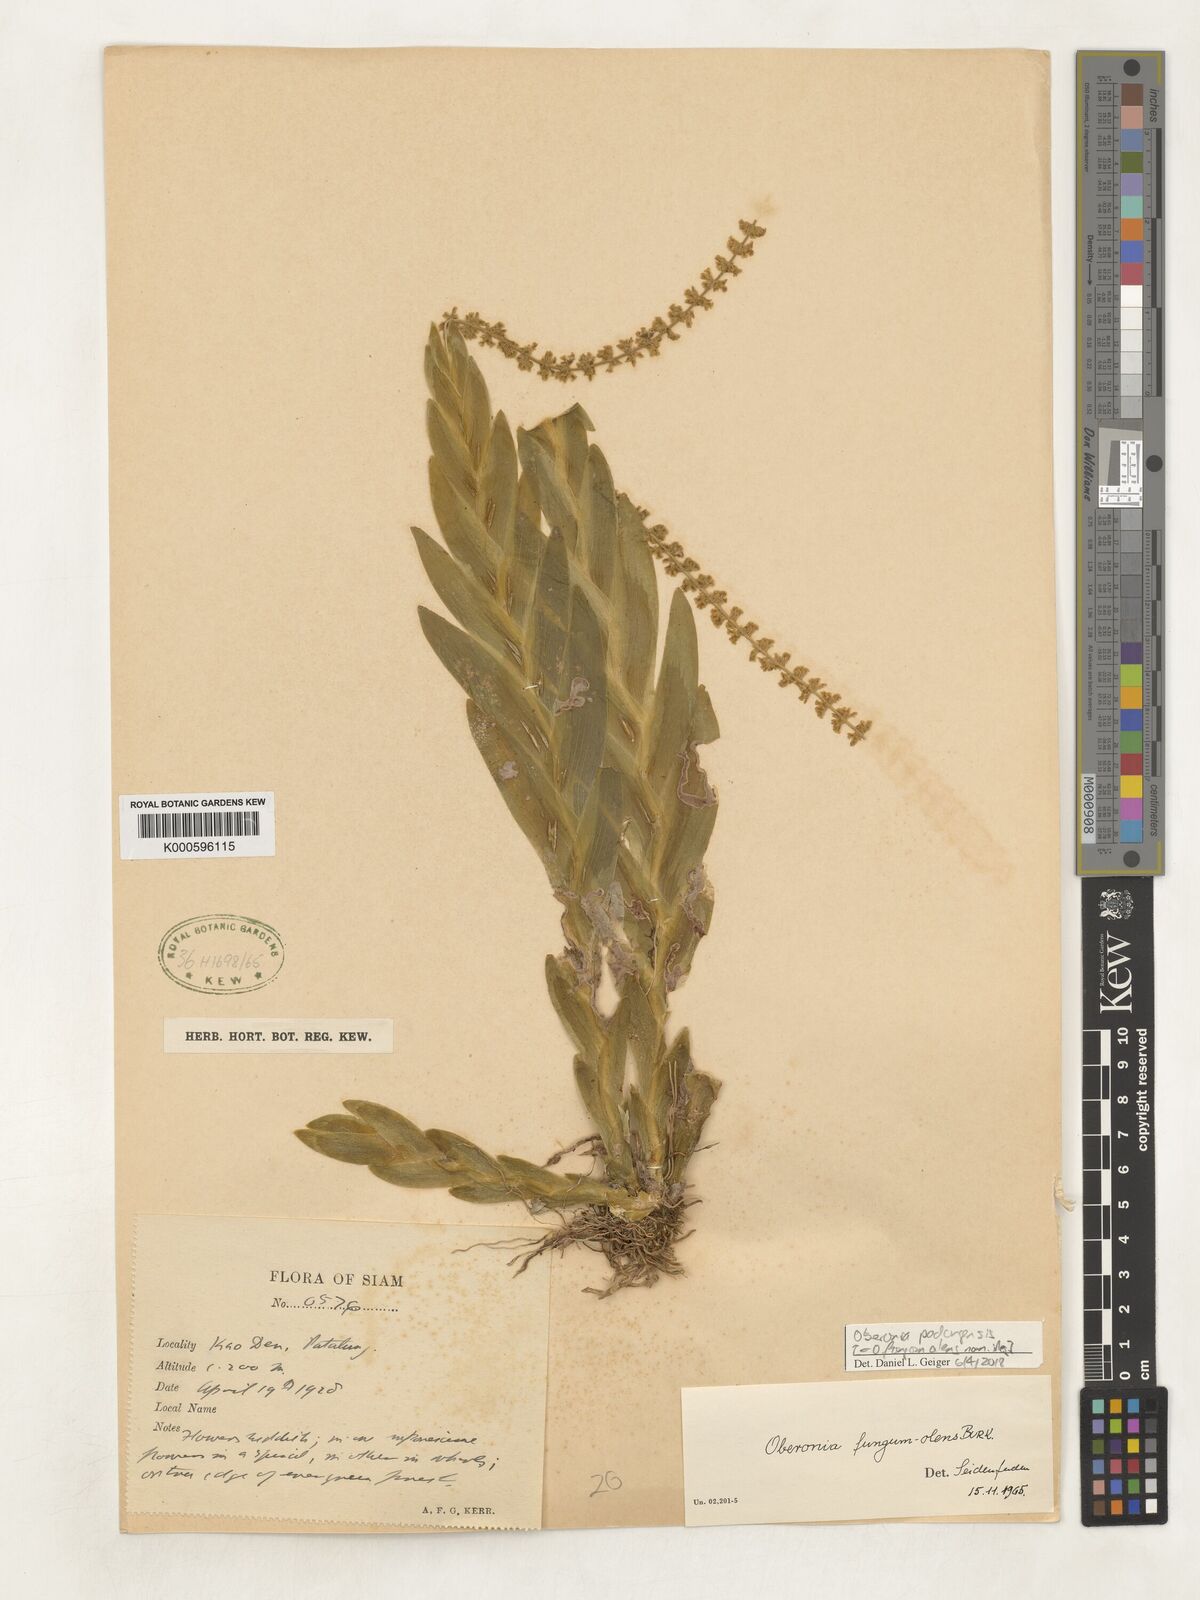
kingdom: Plantae
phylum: Tracheophyta
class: Liliopsida
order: Asparagales
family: Orchidaceae
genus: Oberonia
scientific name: Oberonia fungumolens
